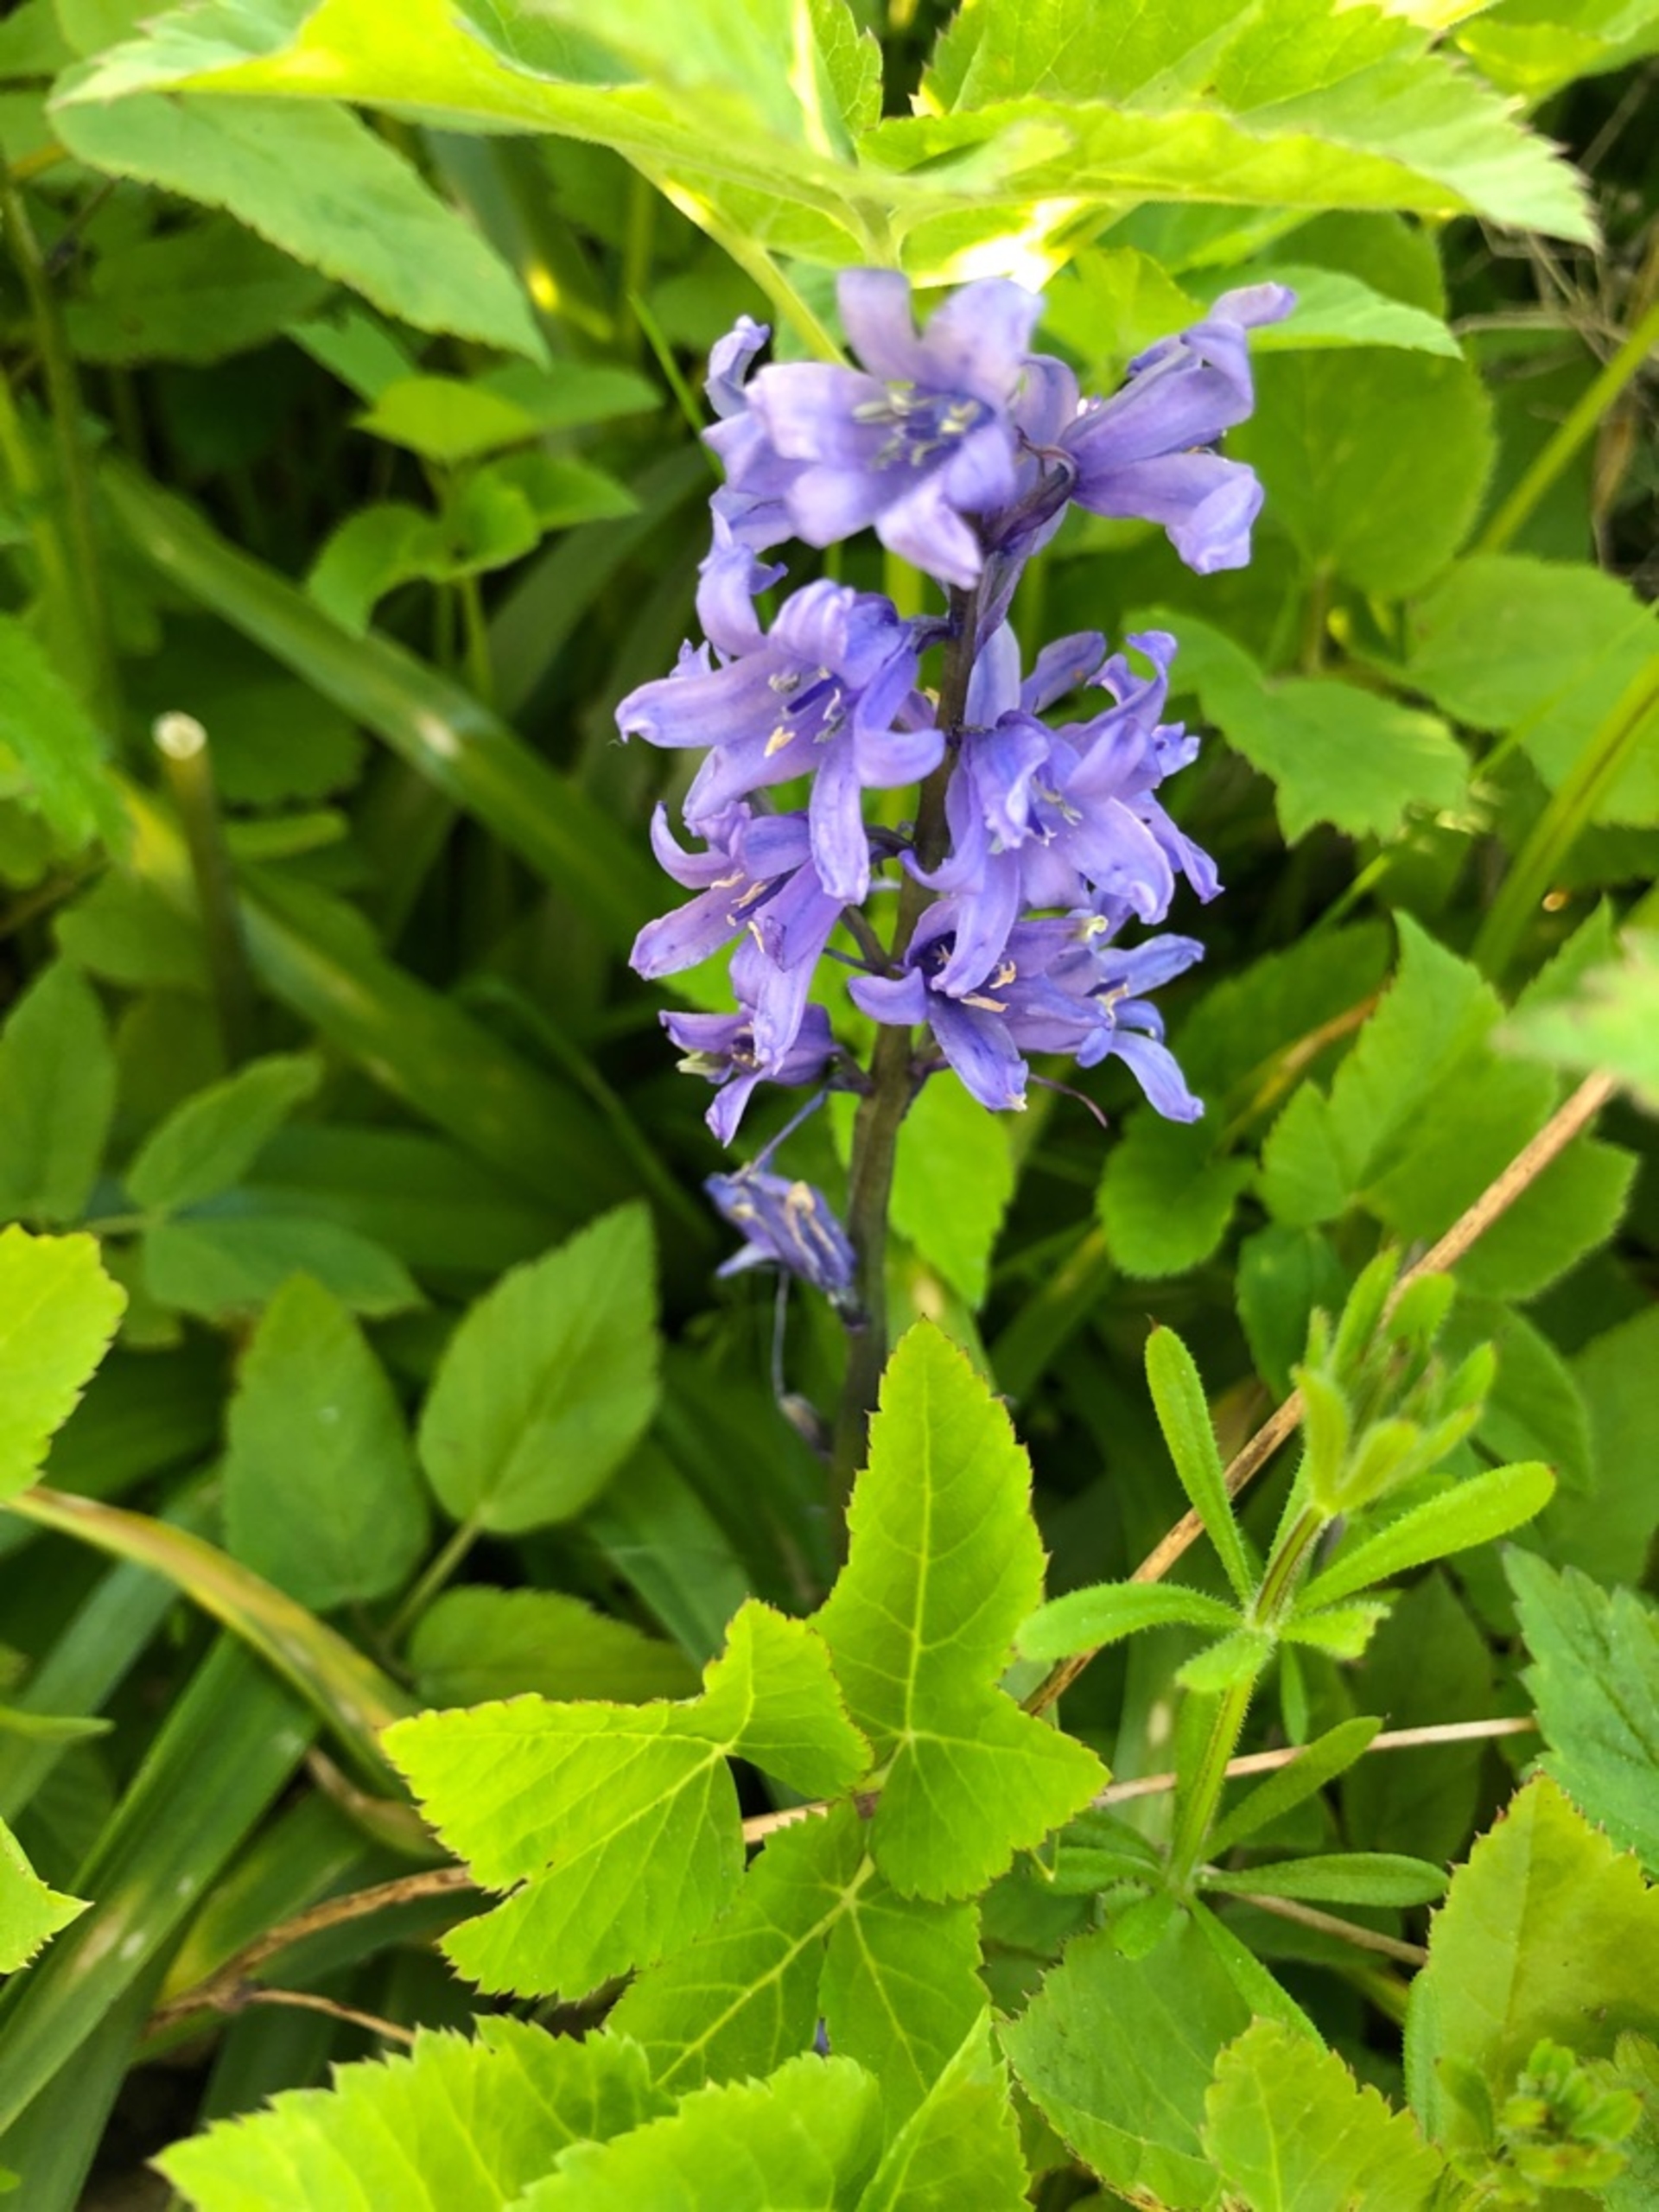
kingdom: Plantae
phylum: Tracheophyta
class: Liliopsida
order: Asparagales
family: Asparagaceae
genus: Hyacinthoides
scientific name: Hyacinthoides massartiana
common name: Hybrid-klokkeskilla
